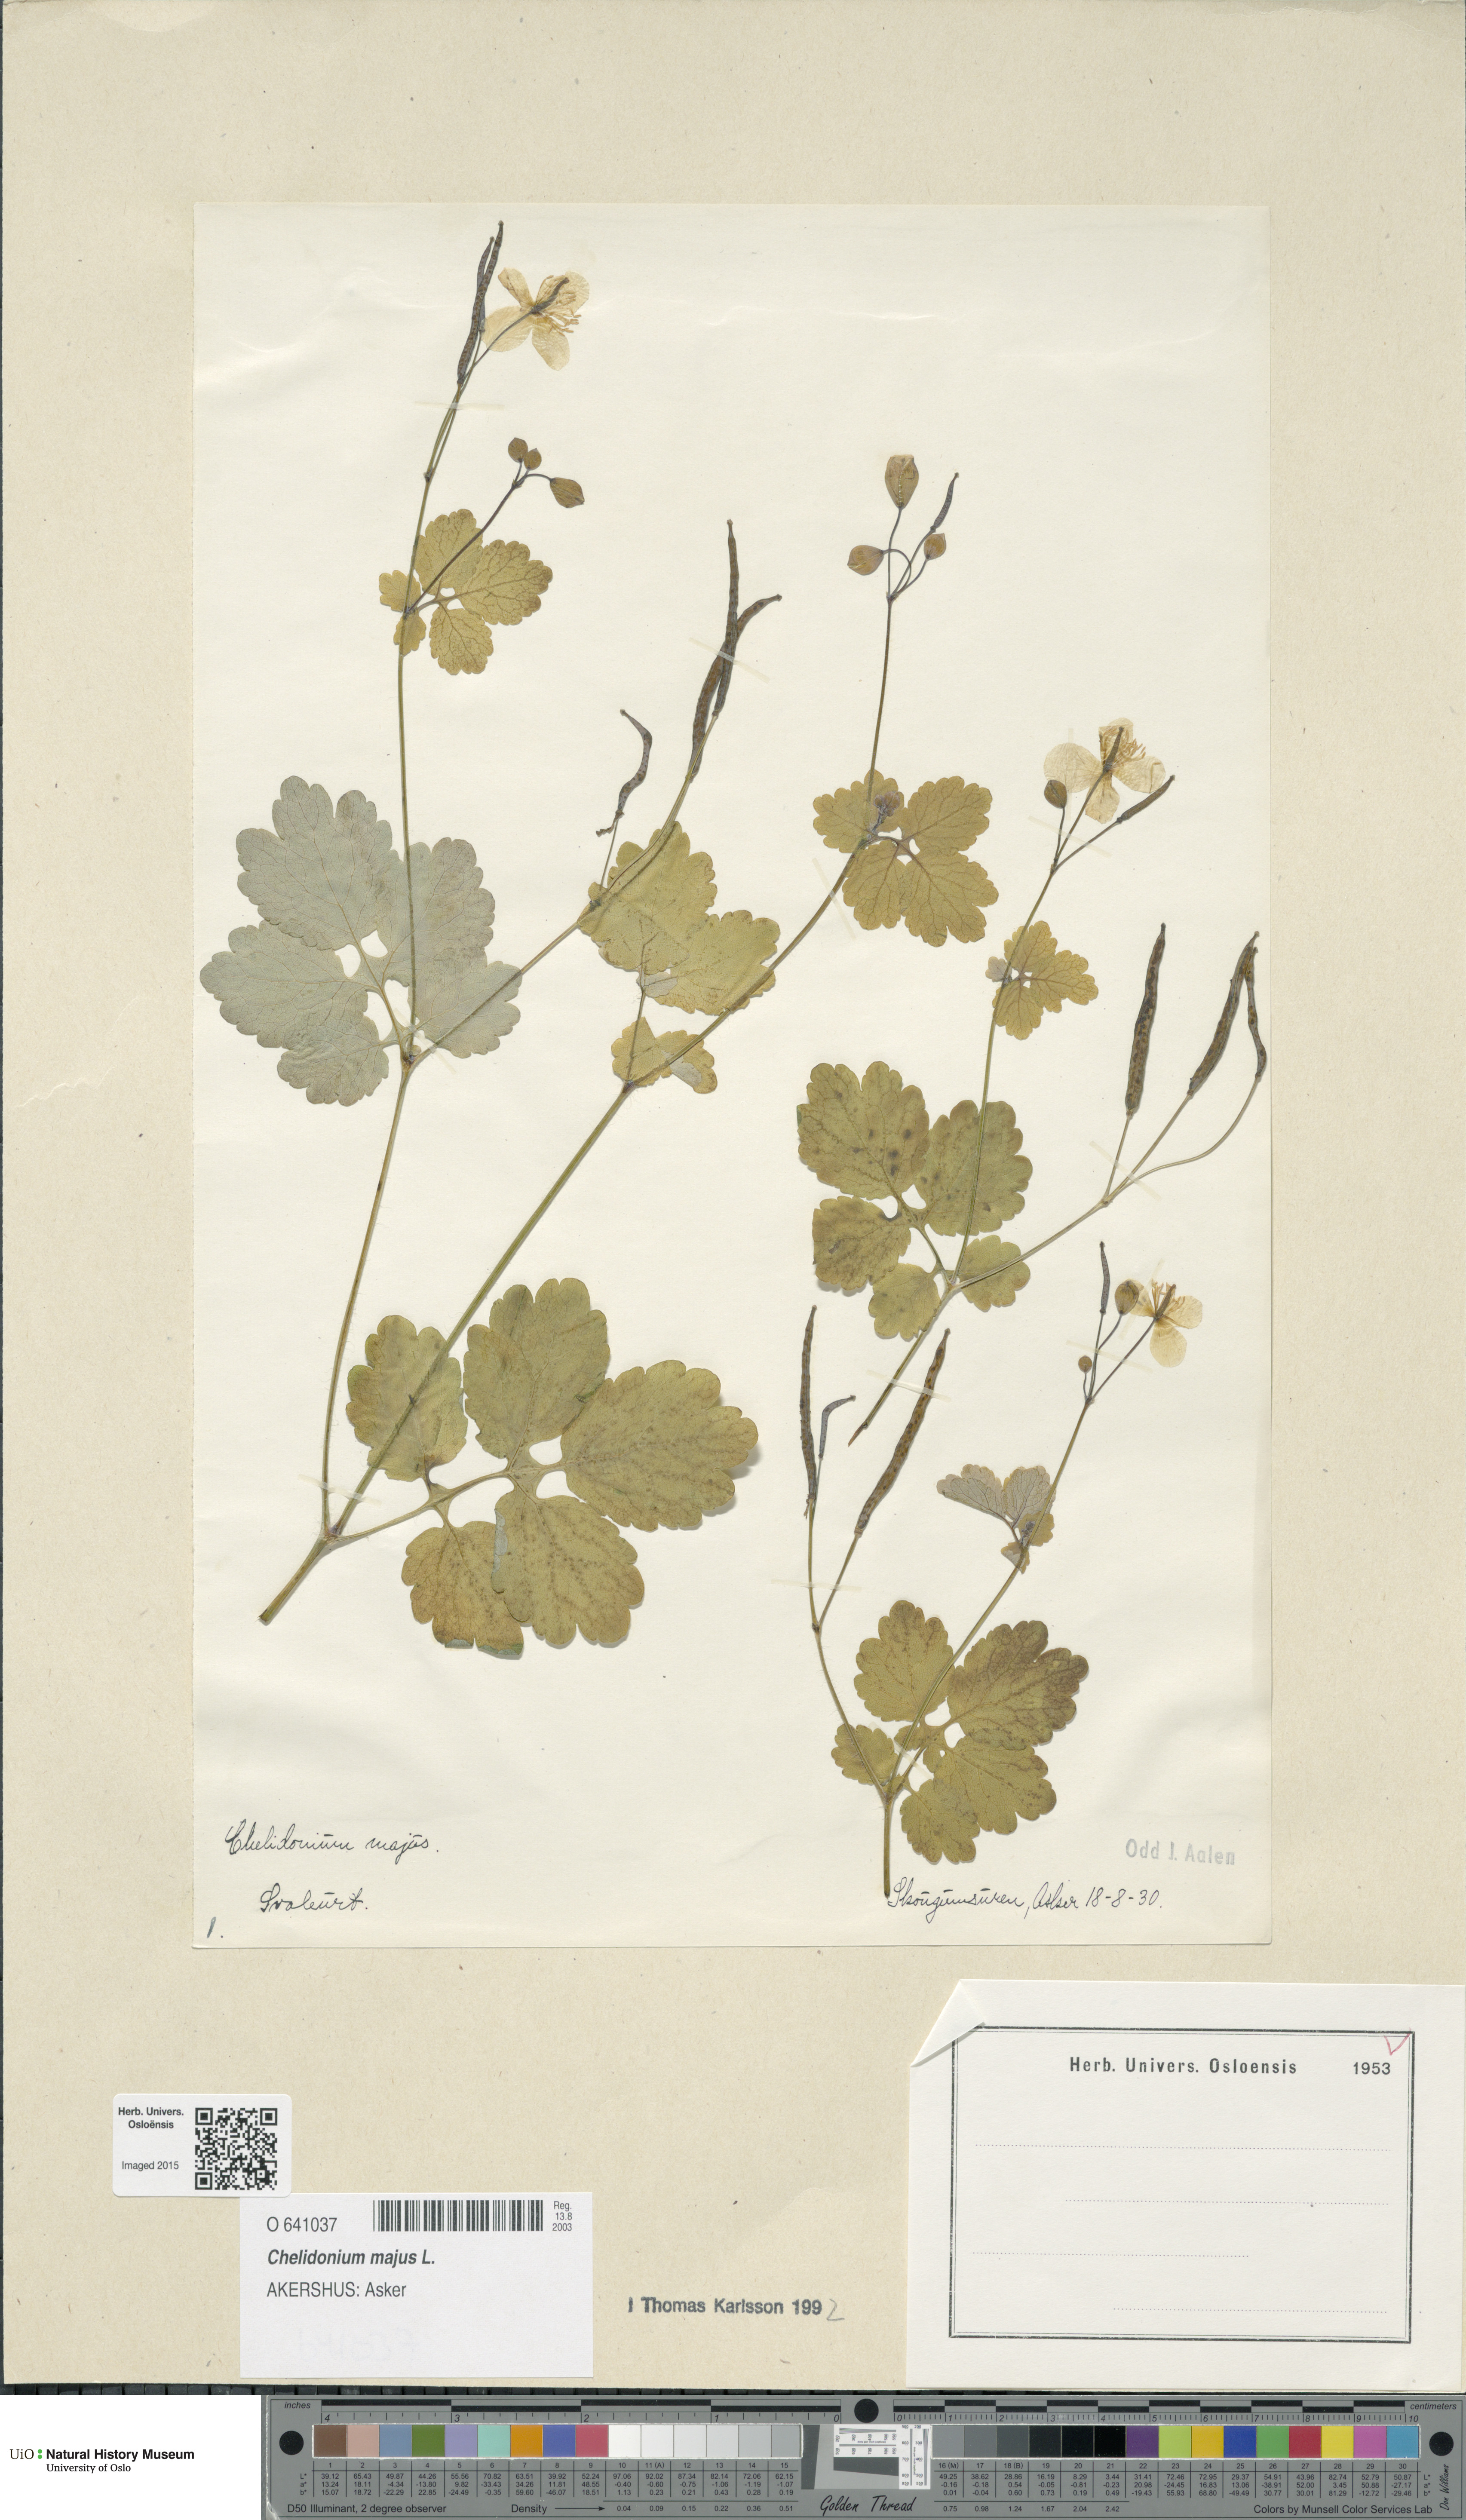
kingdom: Plantae
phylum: Tracheophyta
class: Magnoliopsida
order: Ranunculales
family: Papaveraceae
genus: Chelidonium
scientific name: Chelidonium majus
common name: Greater celandine
